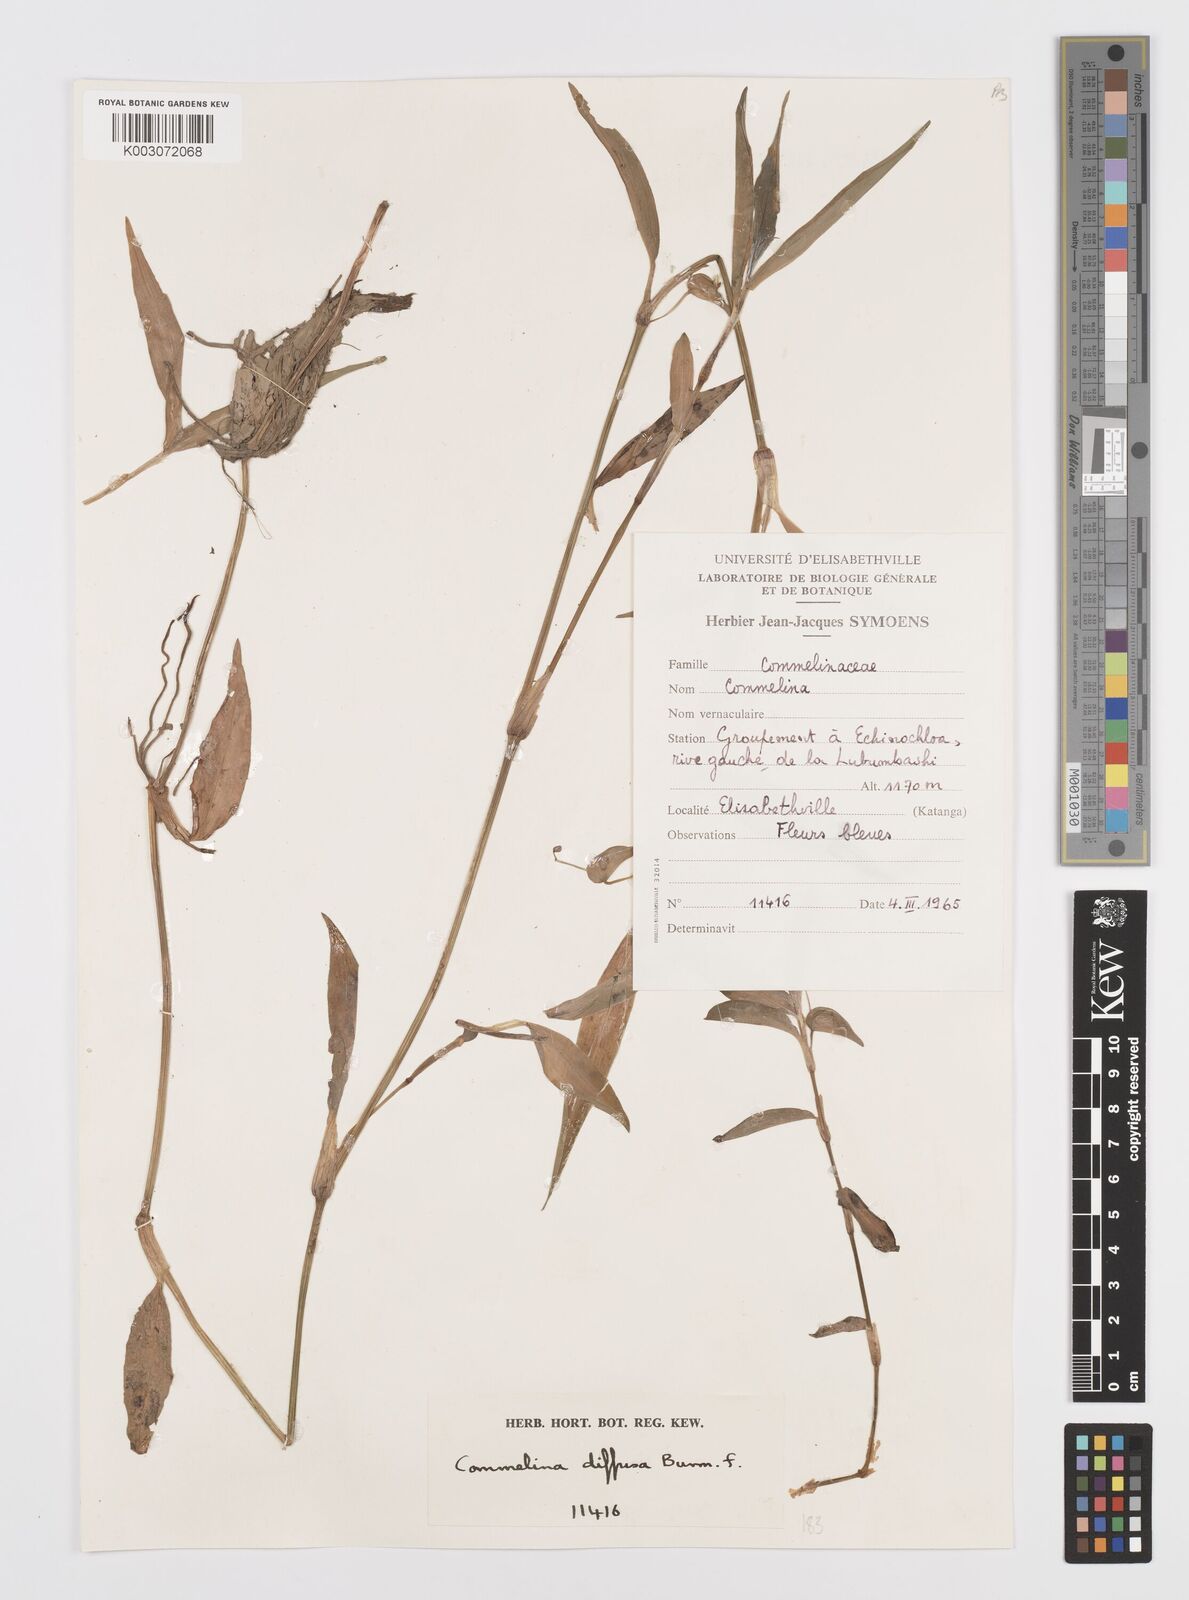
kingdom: Plantae
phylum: Tracheophyta
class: Liliopsida
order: Commelinales
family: Commelinaceae
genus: Commelina
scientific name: Commelina diffusa
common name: Climbing dayflower
